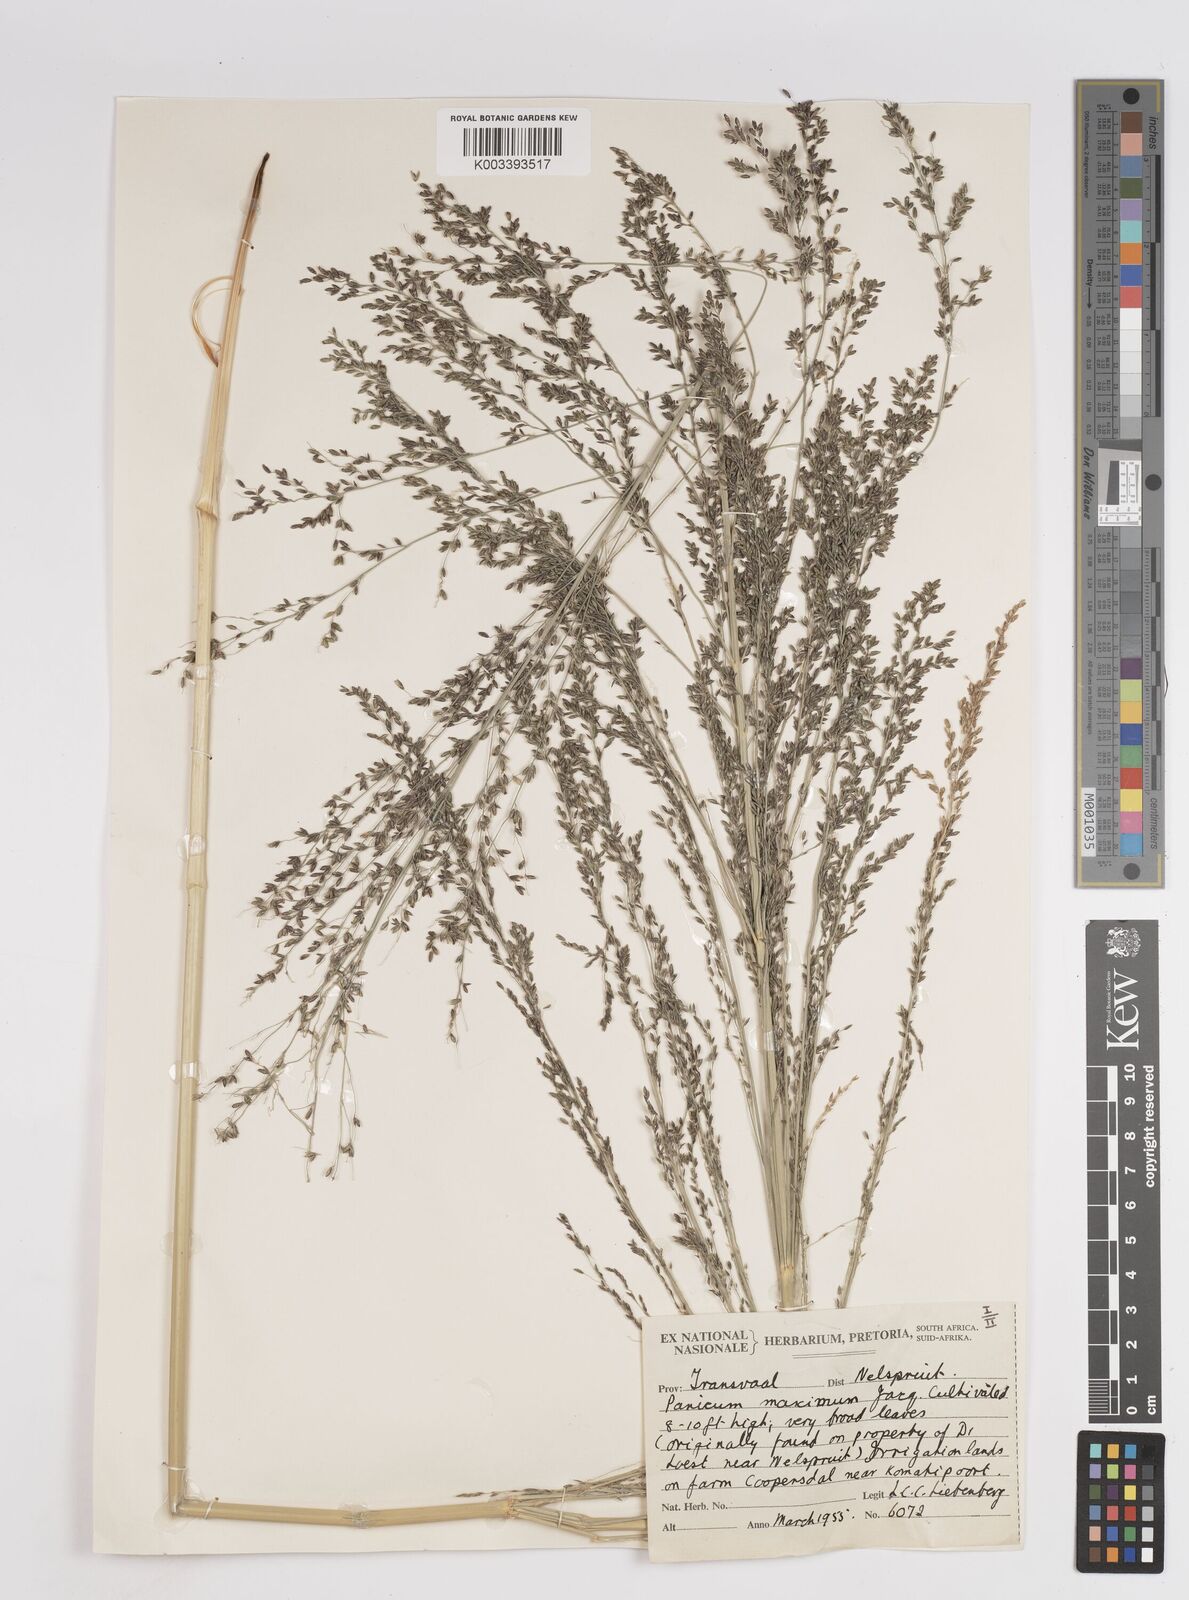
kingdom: Plantae
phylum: Tracheophyta
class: Liliopsida
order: Poales
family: Poaceae
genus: Megathyrsus
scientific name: Megathyrsus maximus
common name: Guineagrass
